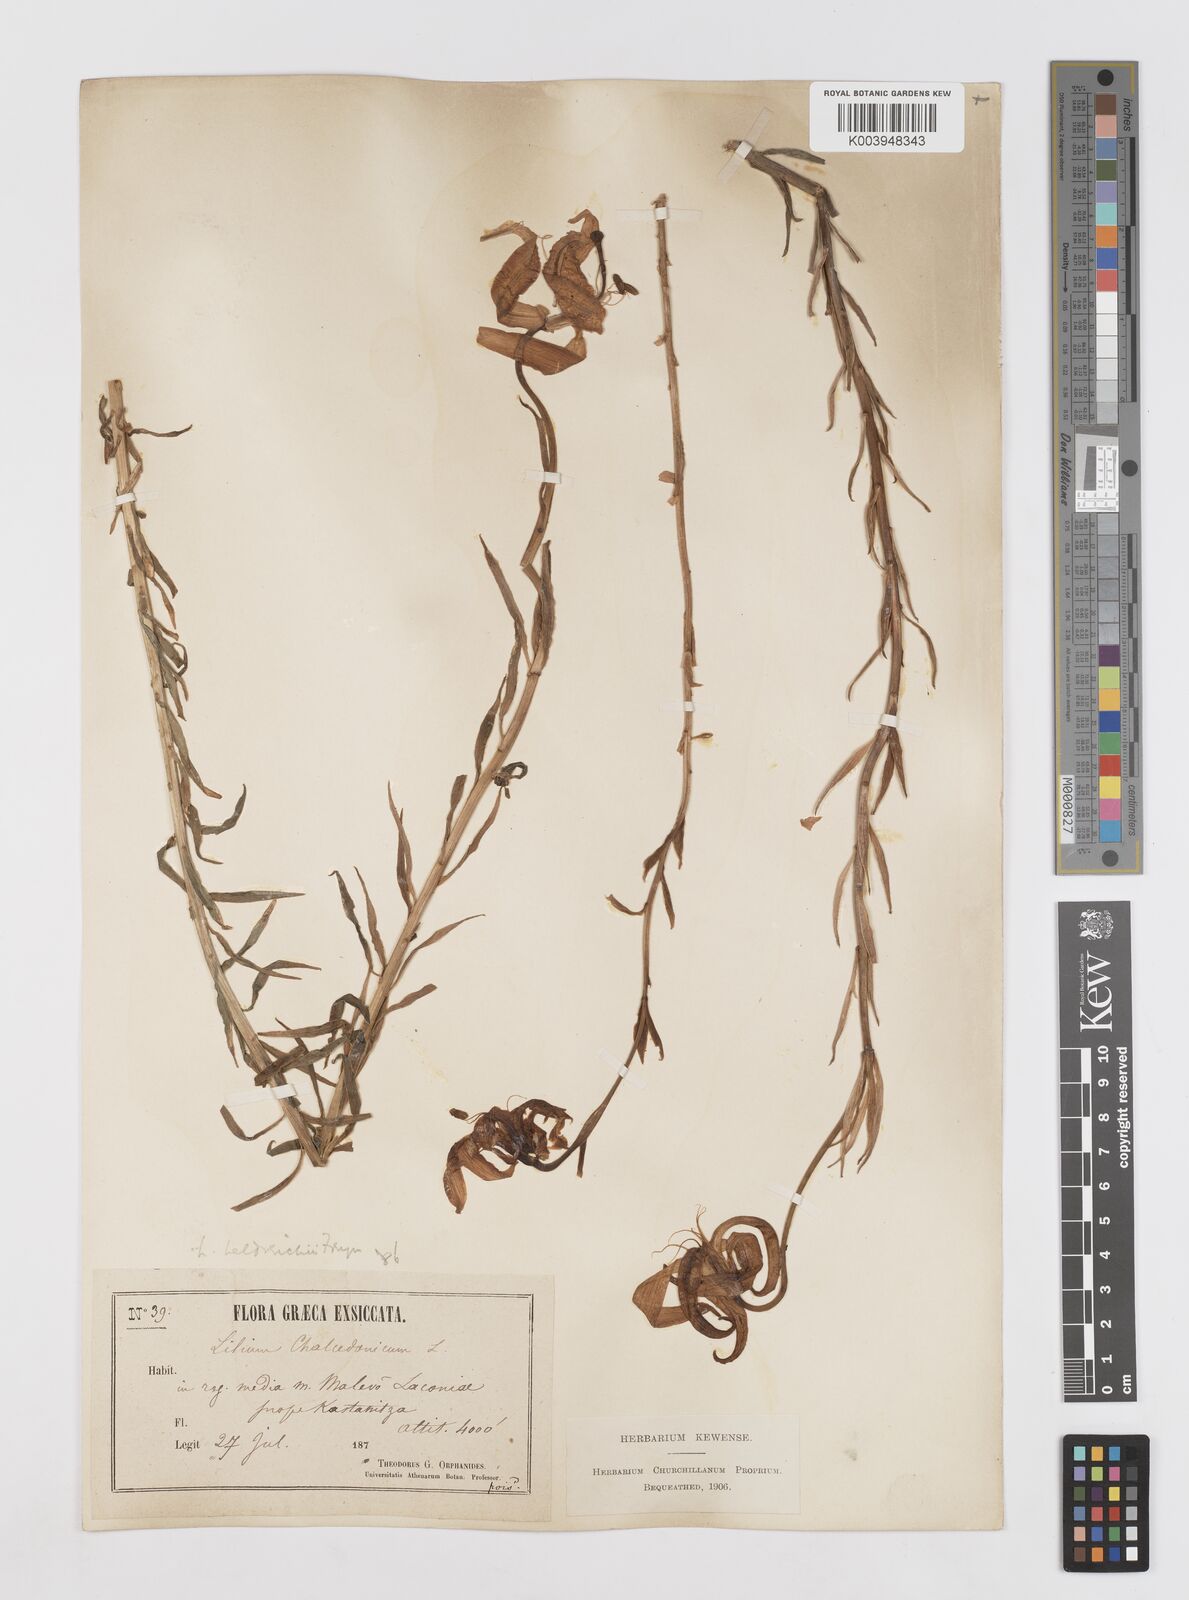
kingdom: Plantae
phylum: Tracheophyta
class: Liliopsida
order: Liliales
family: Liliaceae
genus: Lilium
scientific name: Lilium chalcedonicum
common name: Red martagon of constantinople
